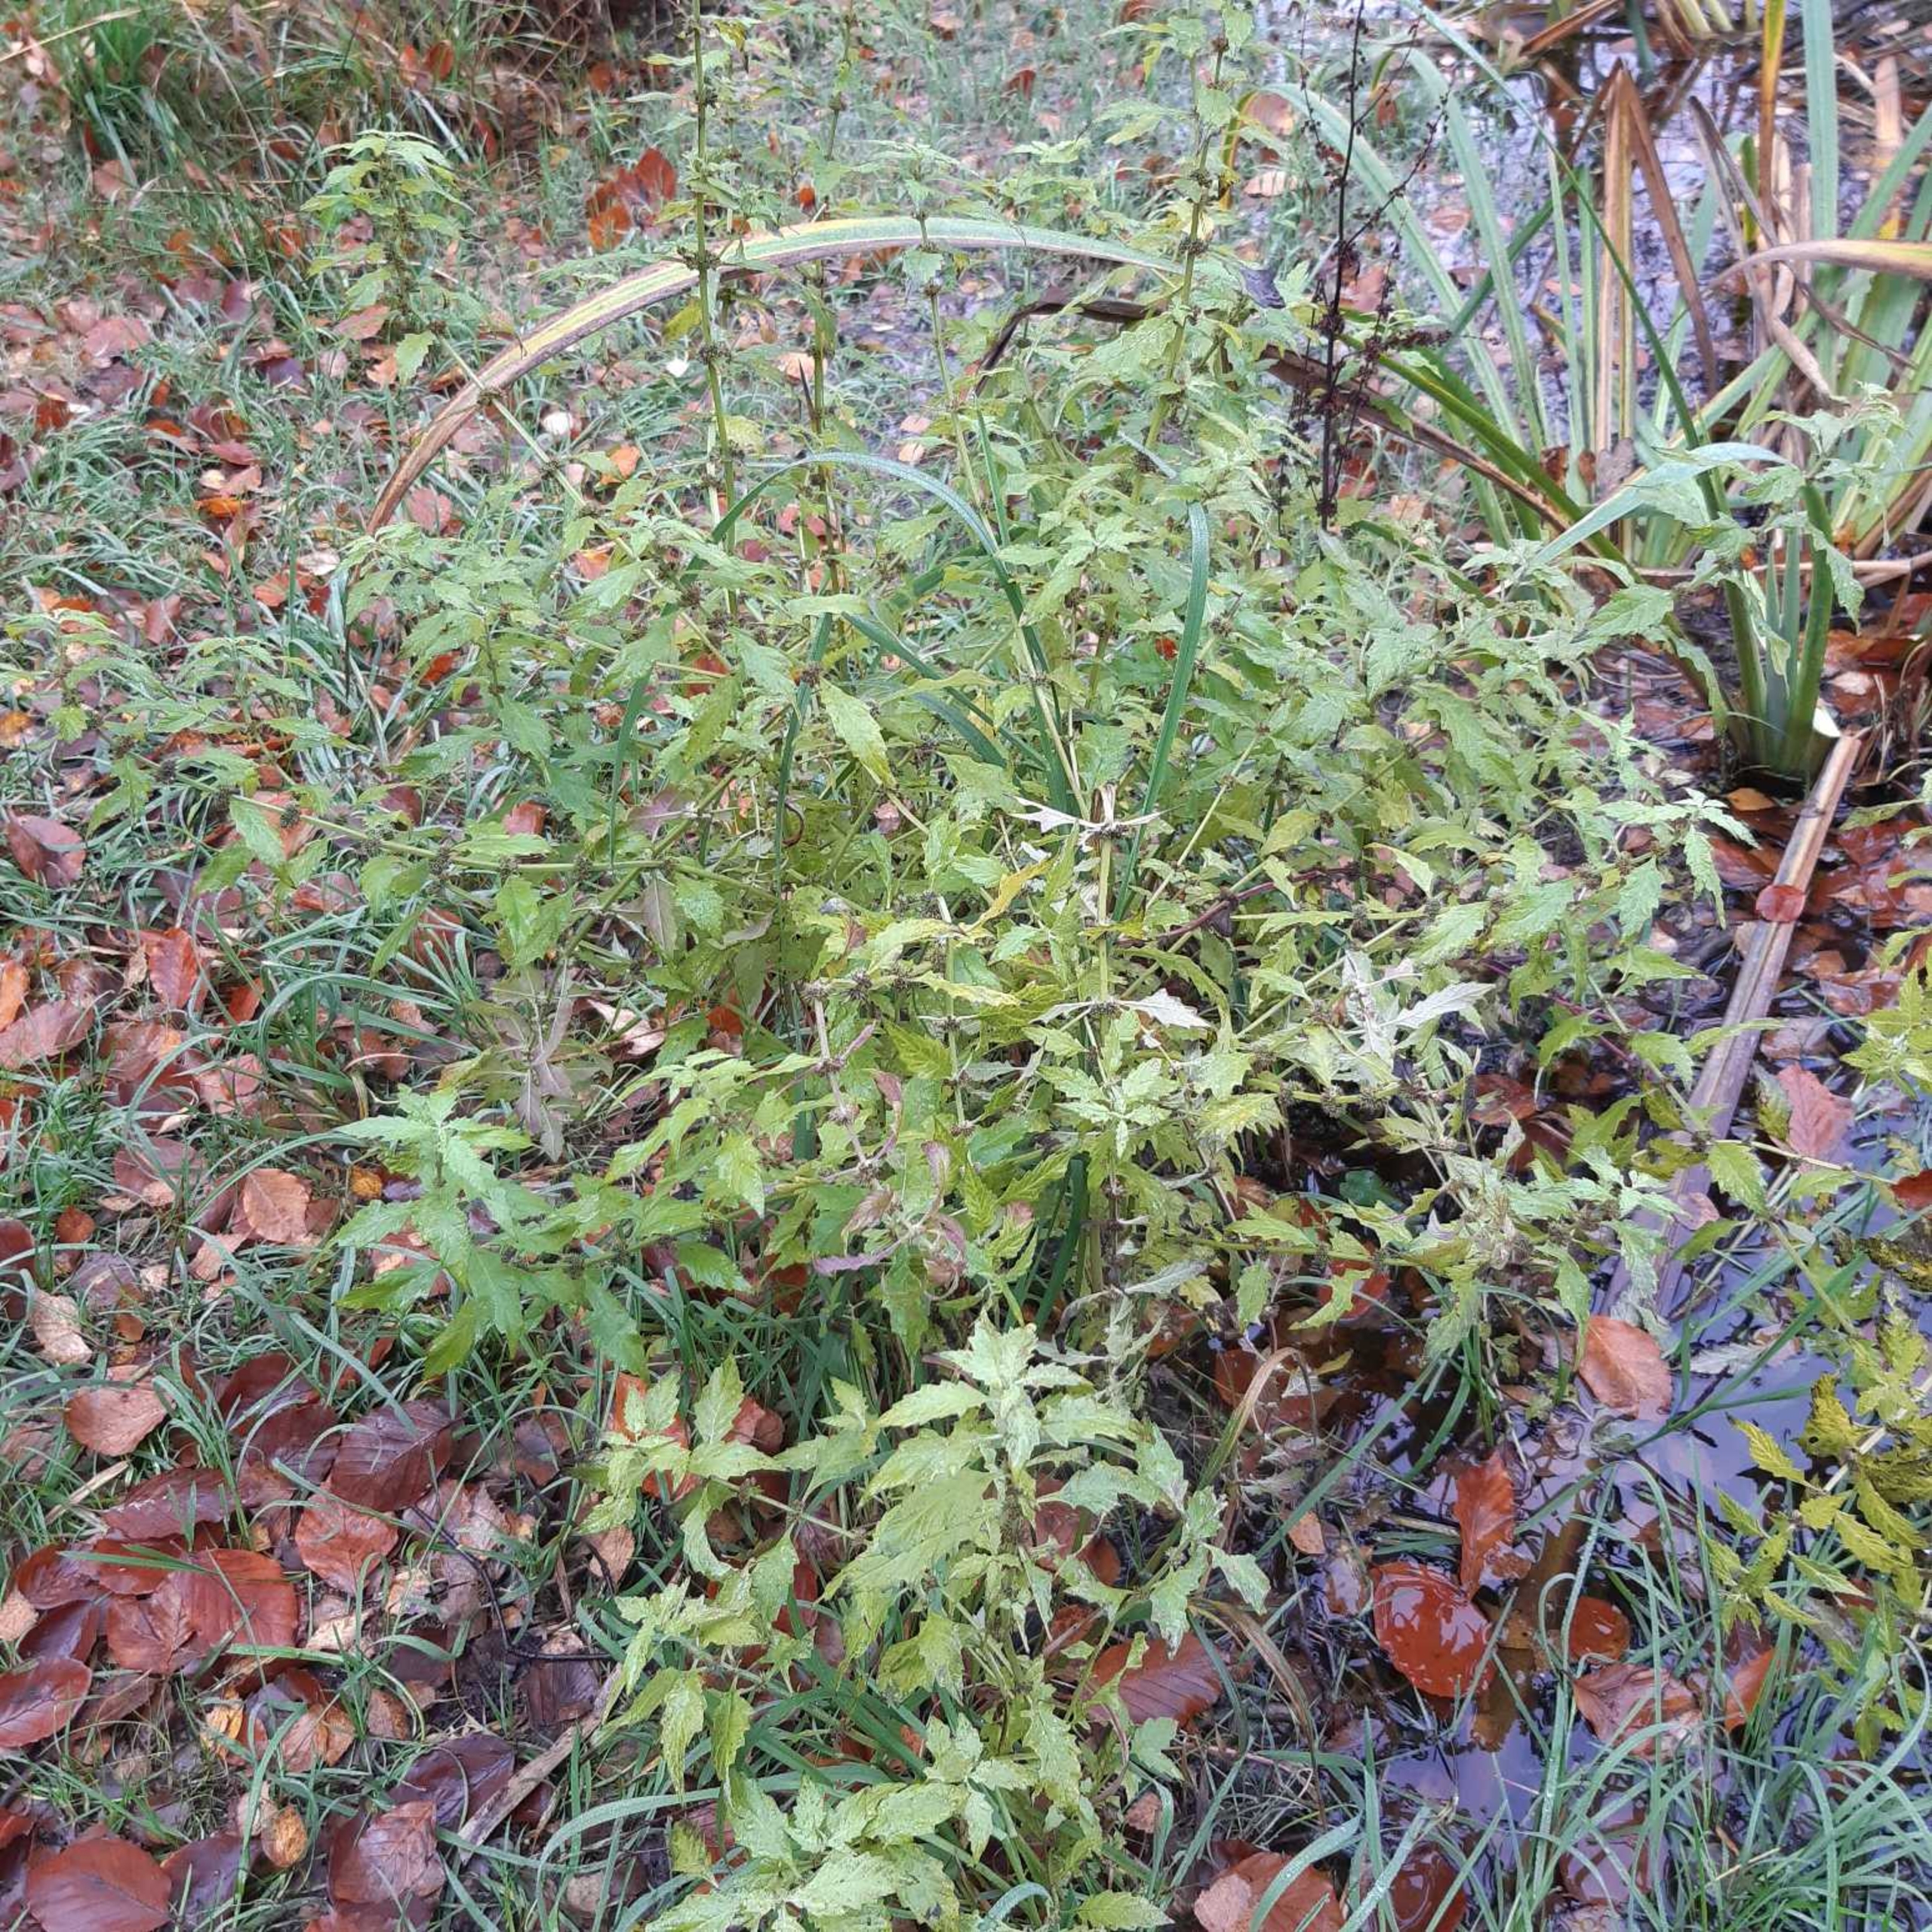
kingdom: Plantae
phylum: Tracheophyta
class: Magnoliopsida
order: Lamiales
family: Lamiaceae
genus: Lycopus
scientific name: Lycopus europaeus
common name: Sværtevæld
